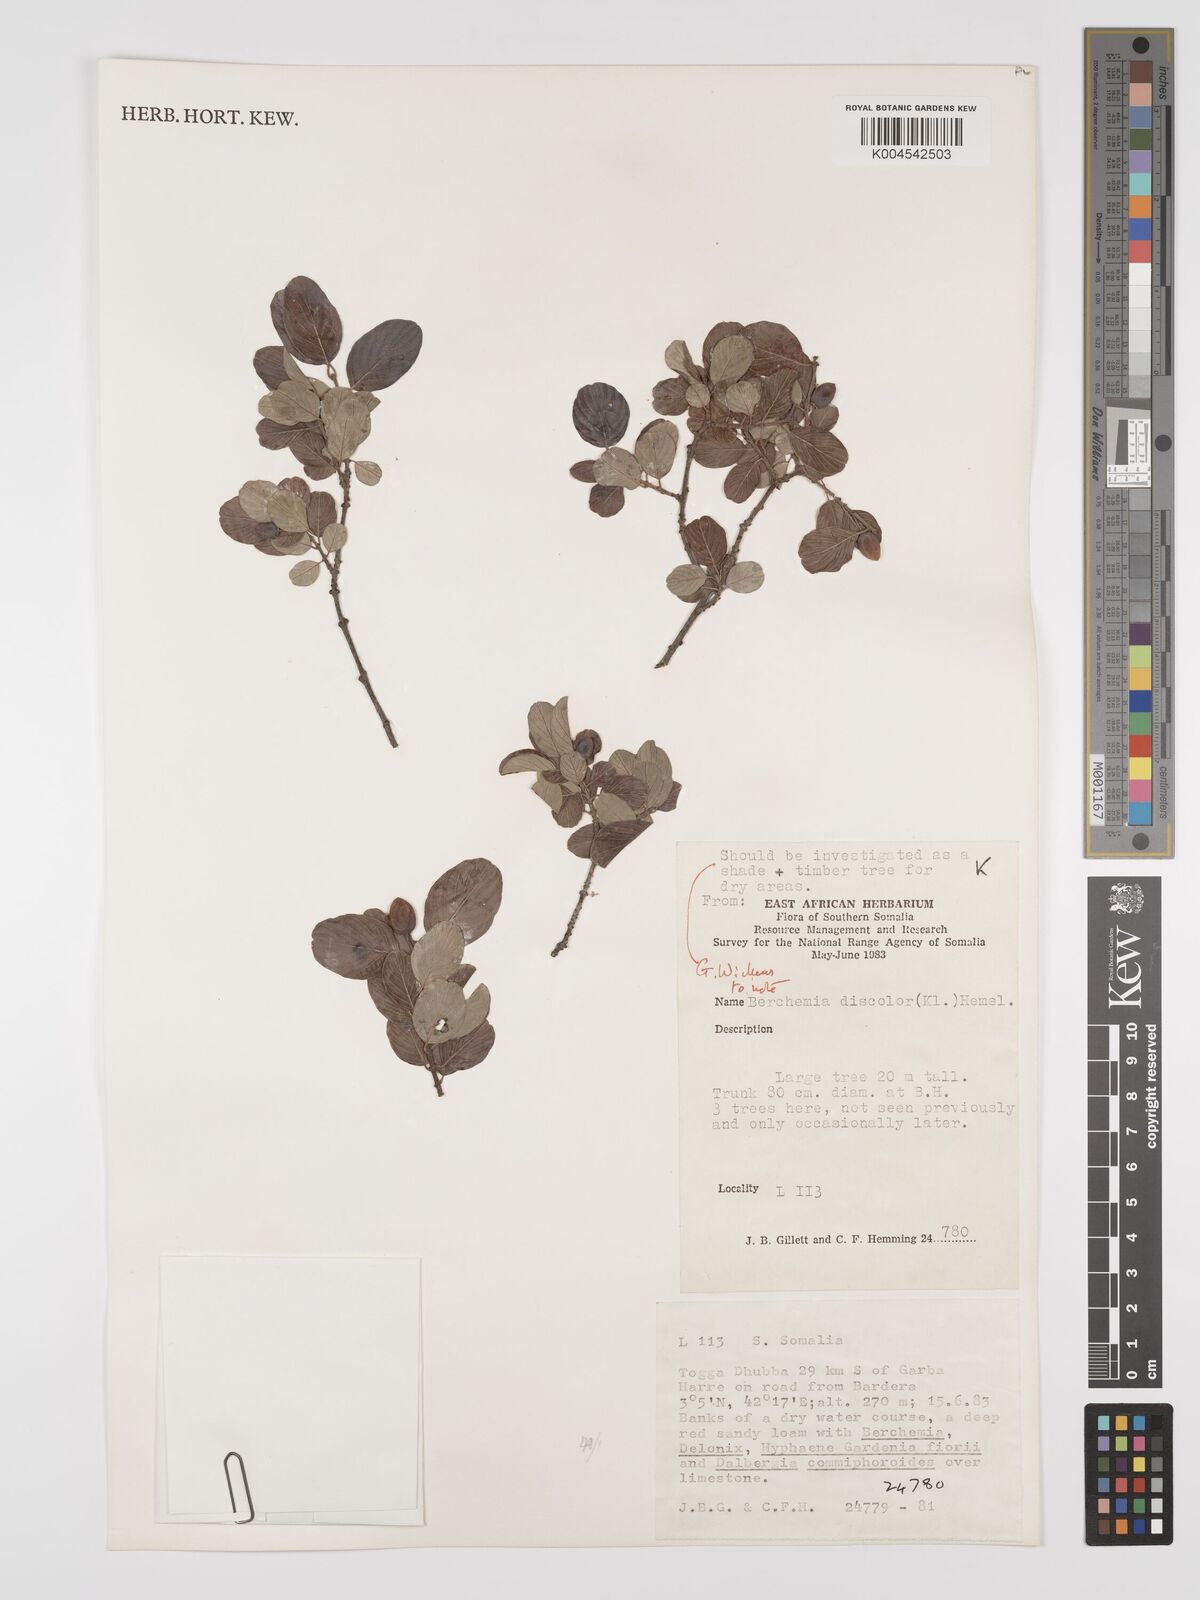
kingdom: Plantae
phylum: Tracheophyta
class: Magnoliopsida
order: Rosales
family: Rhamnaceae
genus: Phyllogeiton
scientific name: Phyllogeiton discolor
